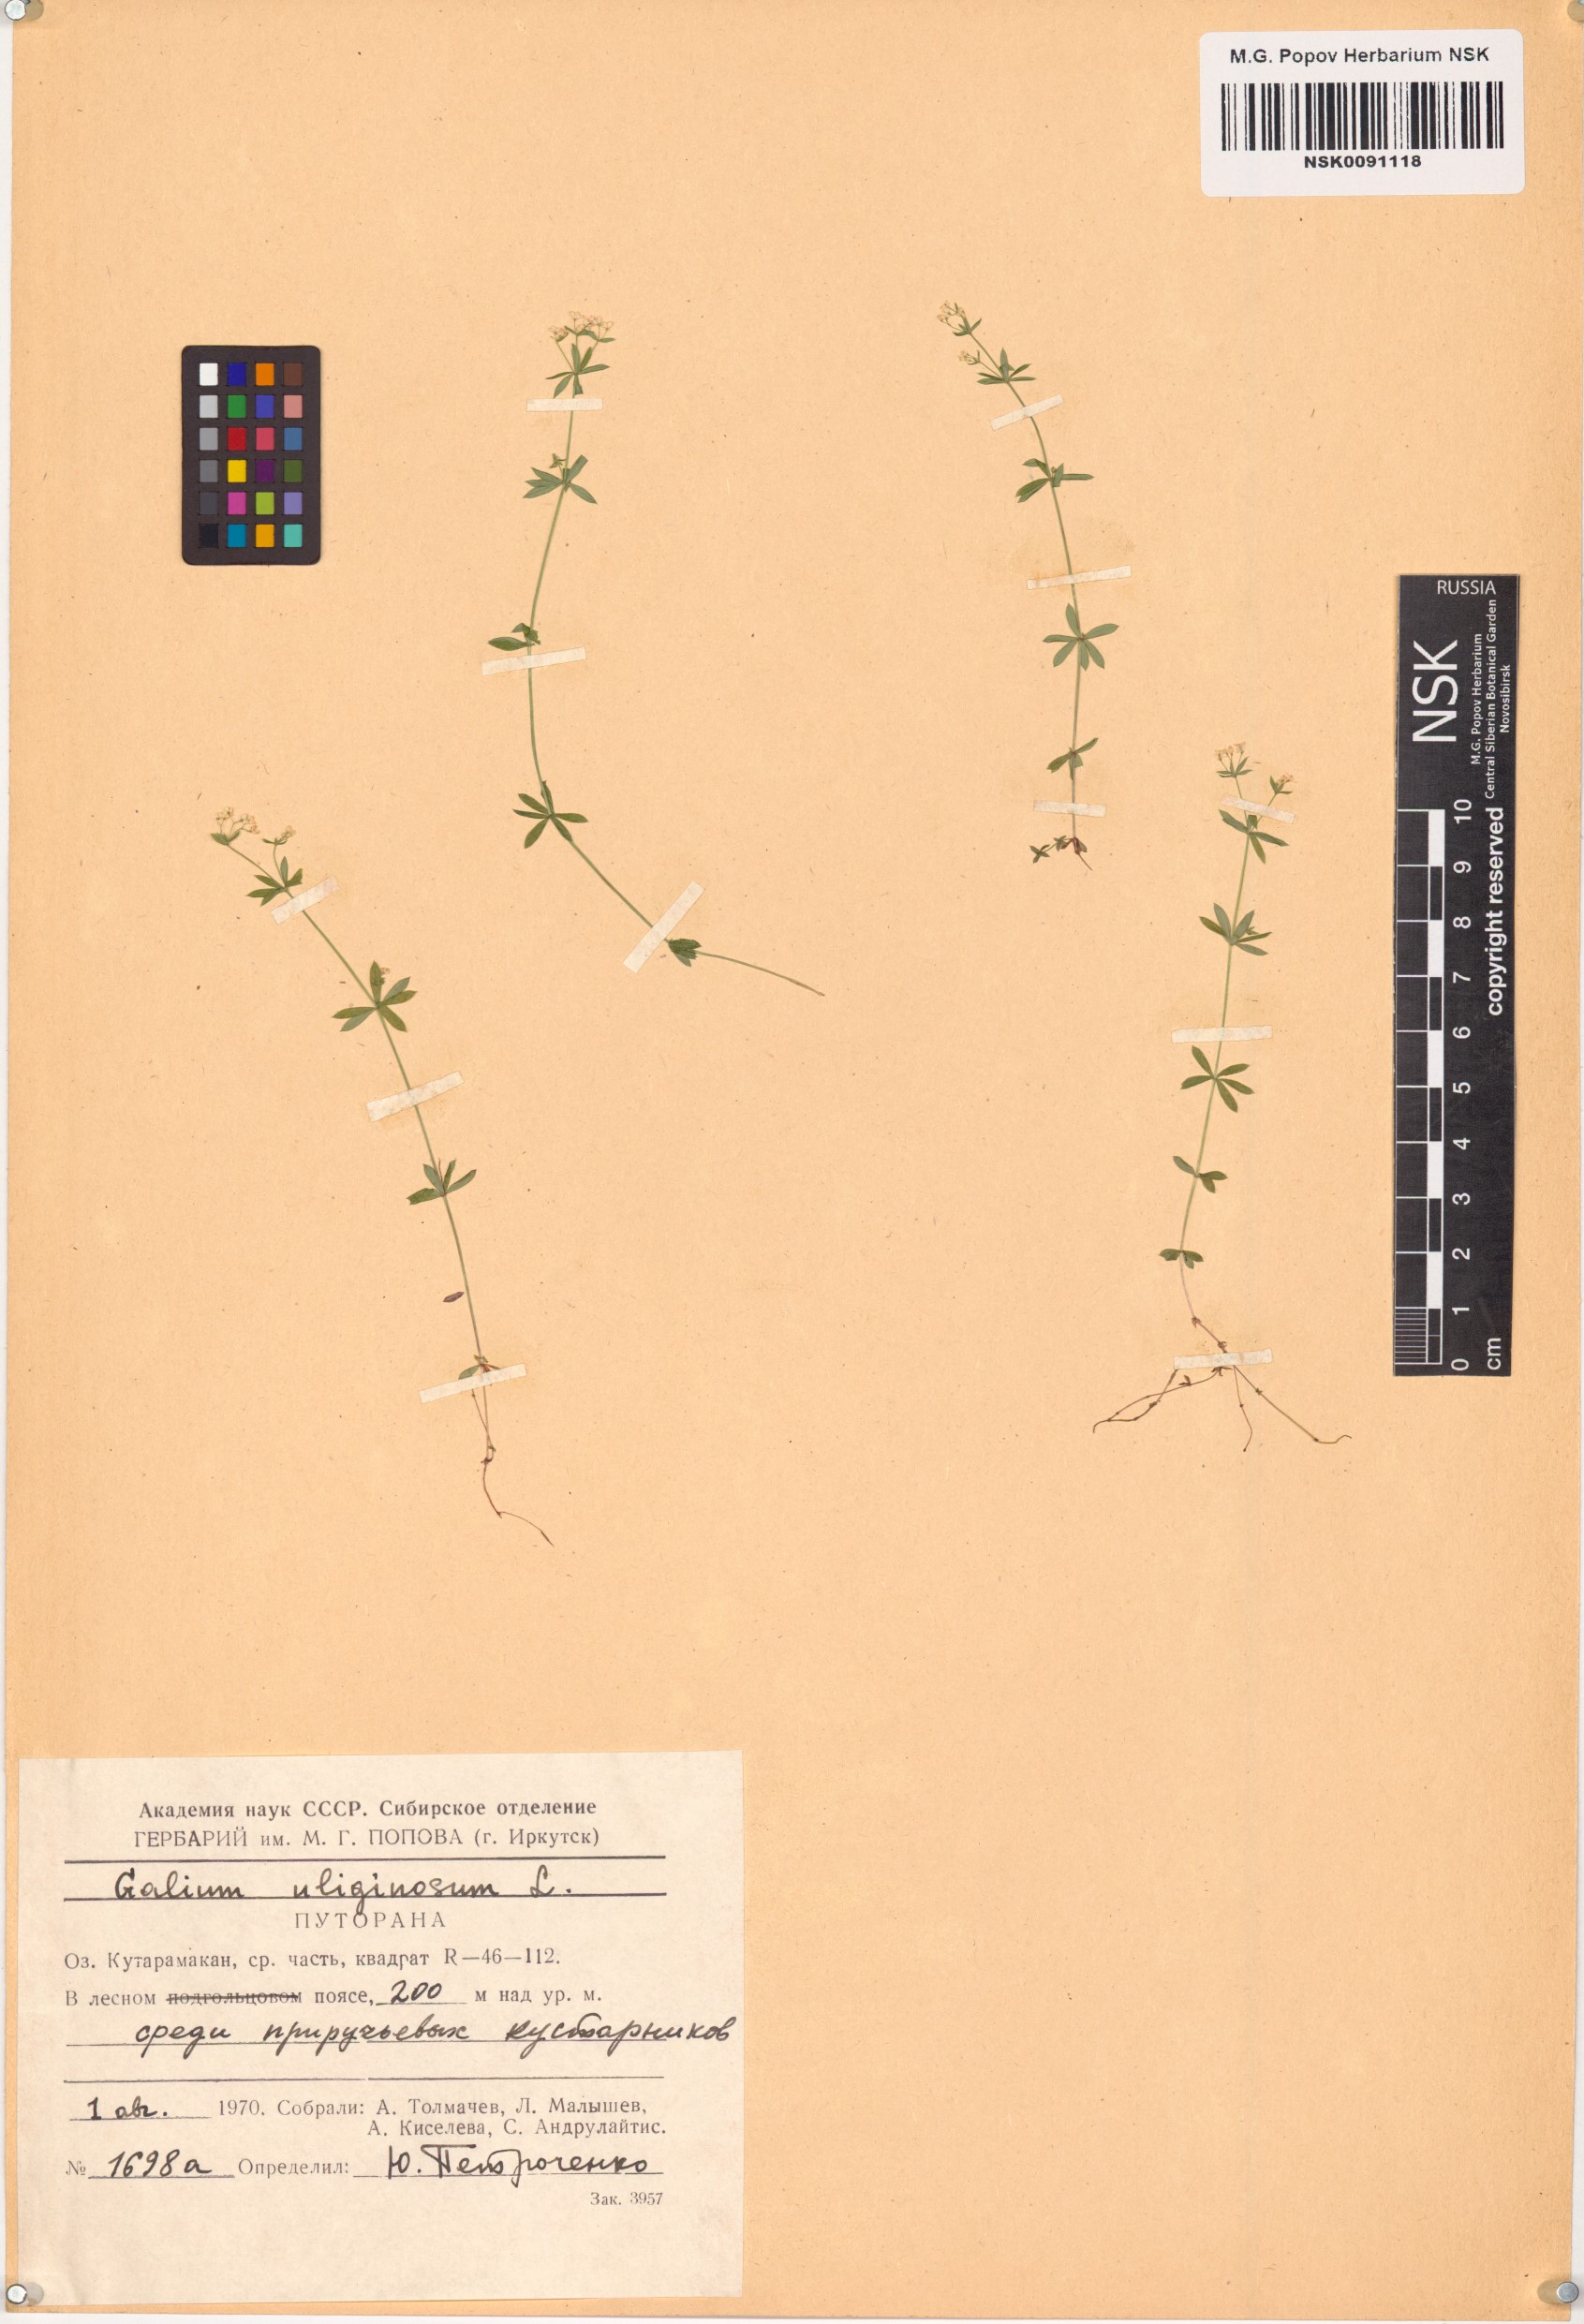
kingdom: Plantae
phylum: Tracheophyta
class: Magnoliopsida
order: Gentianales
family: Rubiaceae
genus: Galium
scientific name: Galium uliginosum
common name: Fen bedstraw
